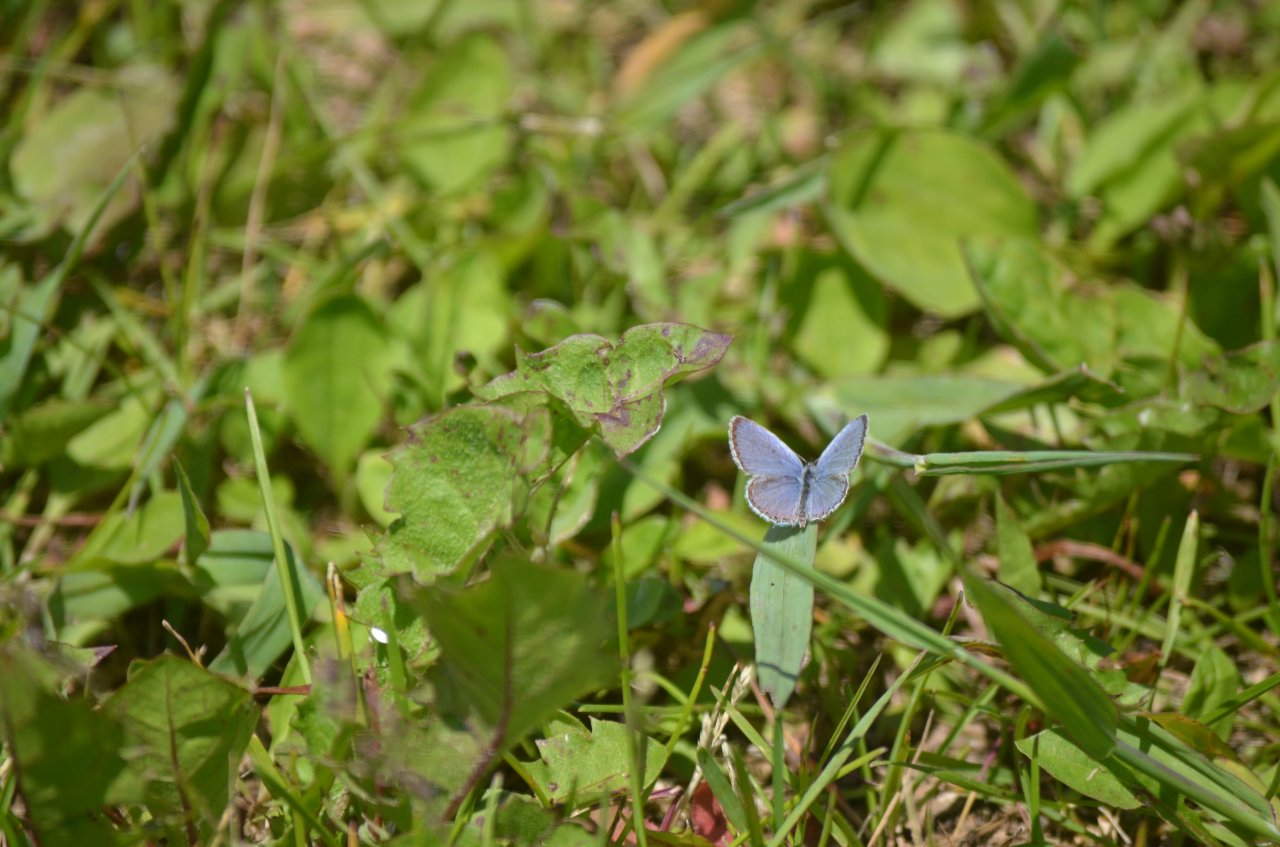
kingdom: Animalia
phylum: Arthropoda
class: Insecta
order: Lepidoptera
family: Lycaenidae
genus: Elkalyce
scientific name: Elkalyce comyntas
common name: Eastern Tailed-Blue
